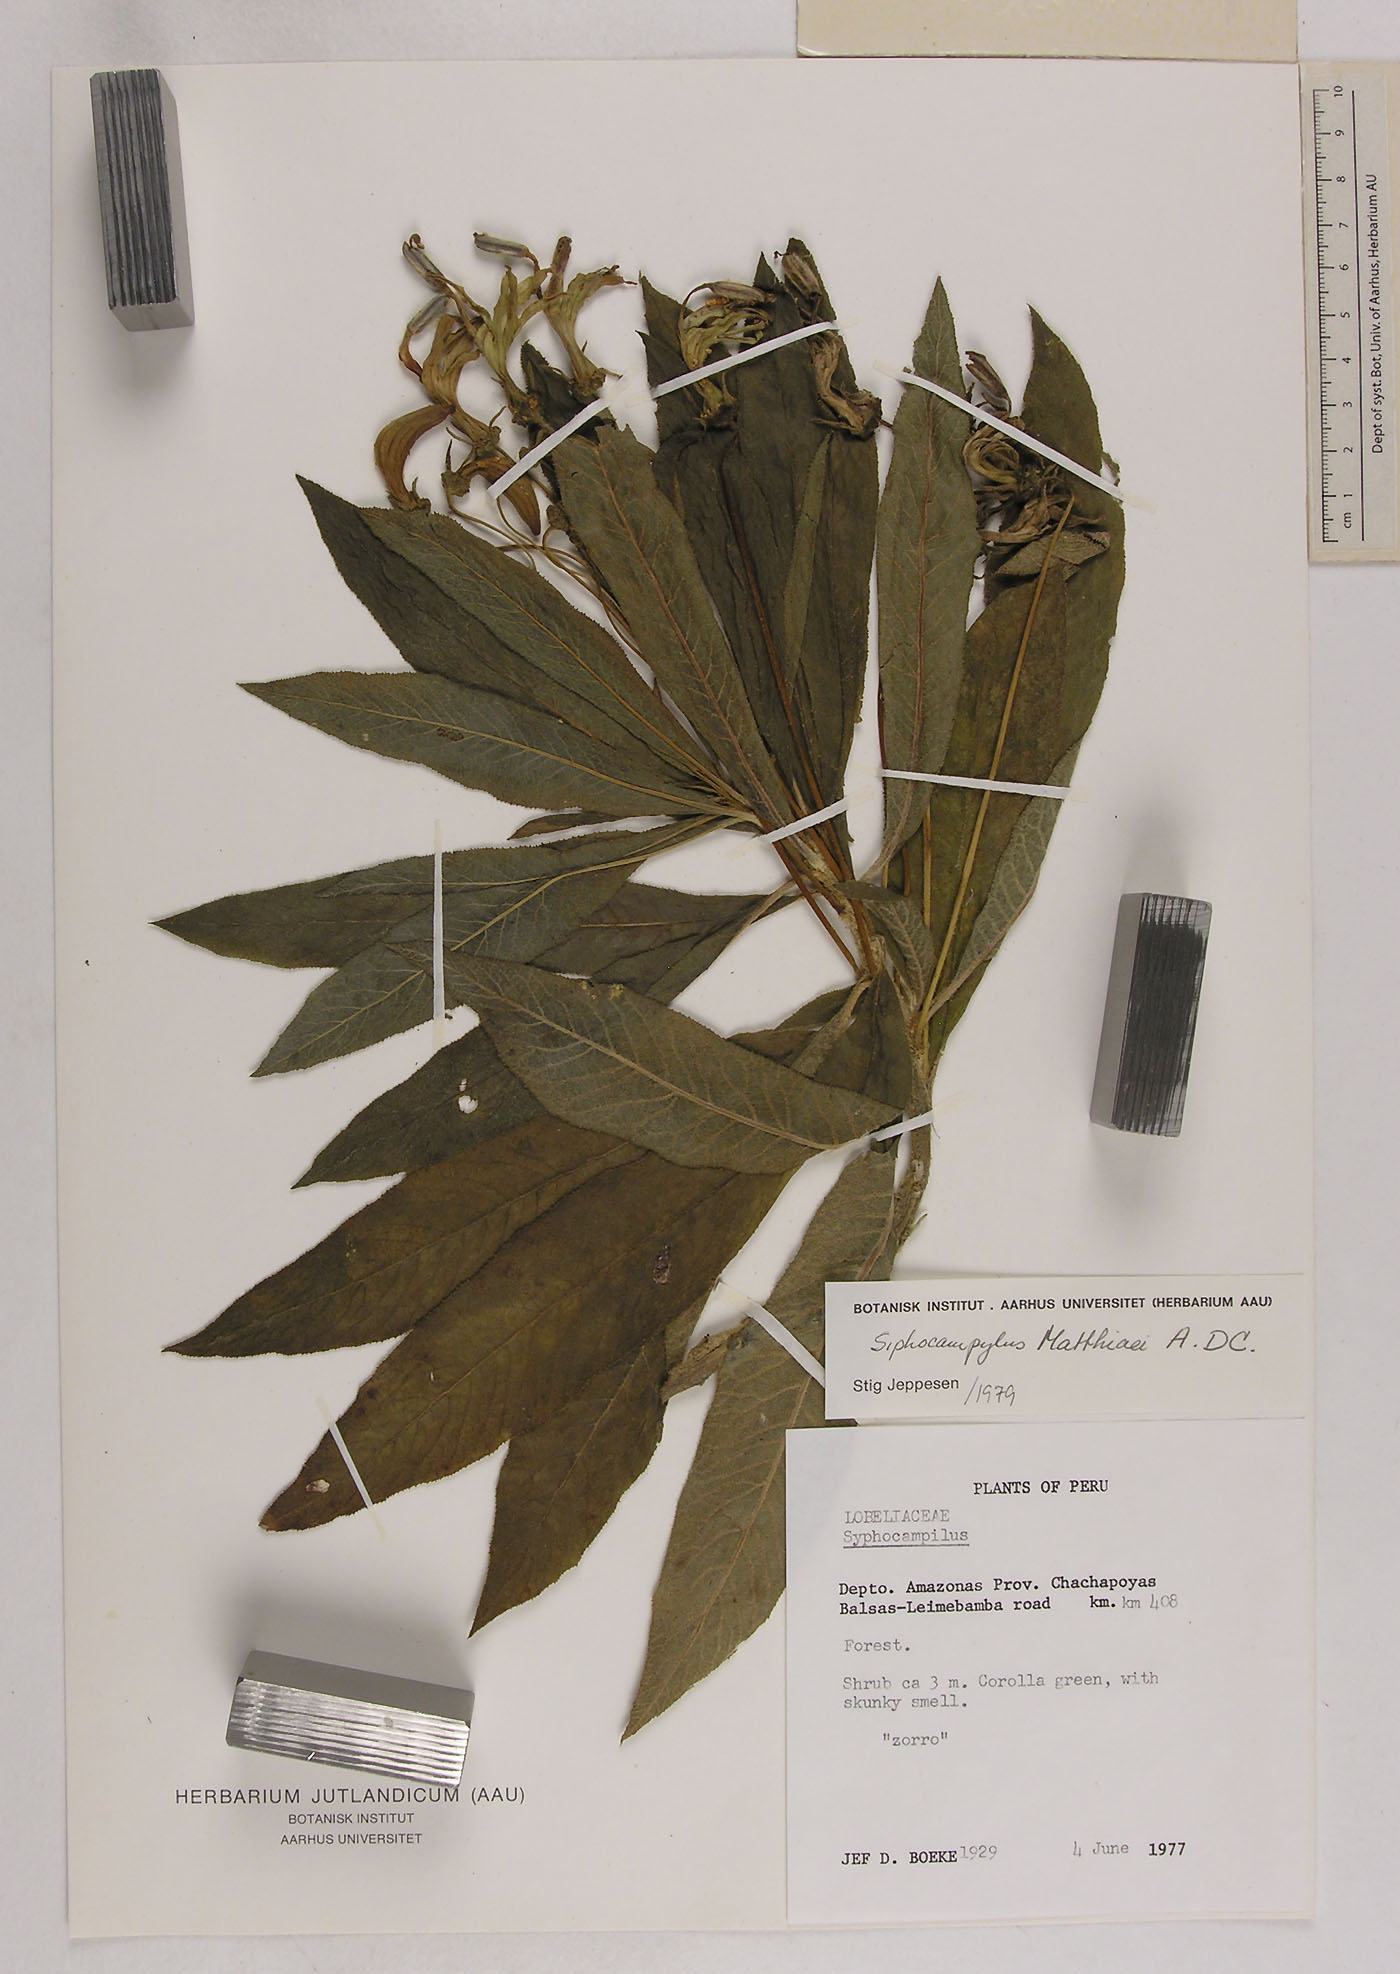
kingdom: Plantae
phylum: Tracheophyta
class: Magnoliopsida
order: Asterales
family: Campanulaceae
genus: Siphocampylus
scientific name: Siphocampylus matthiaei
